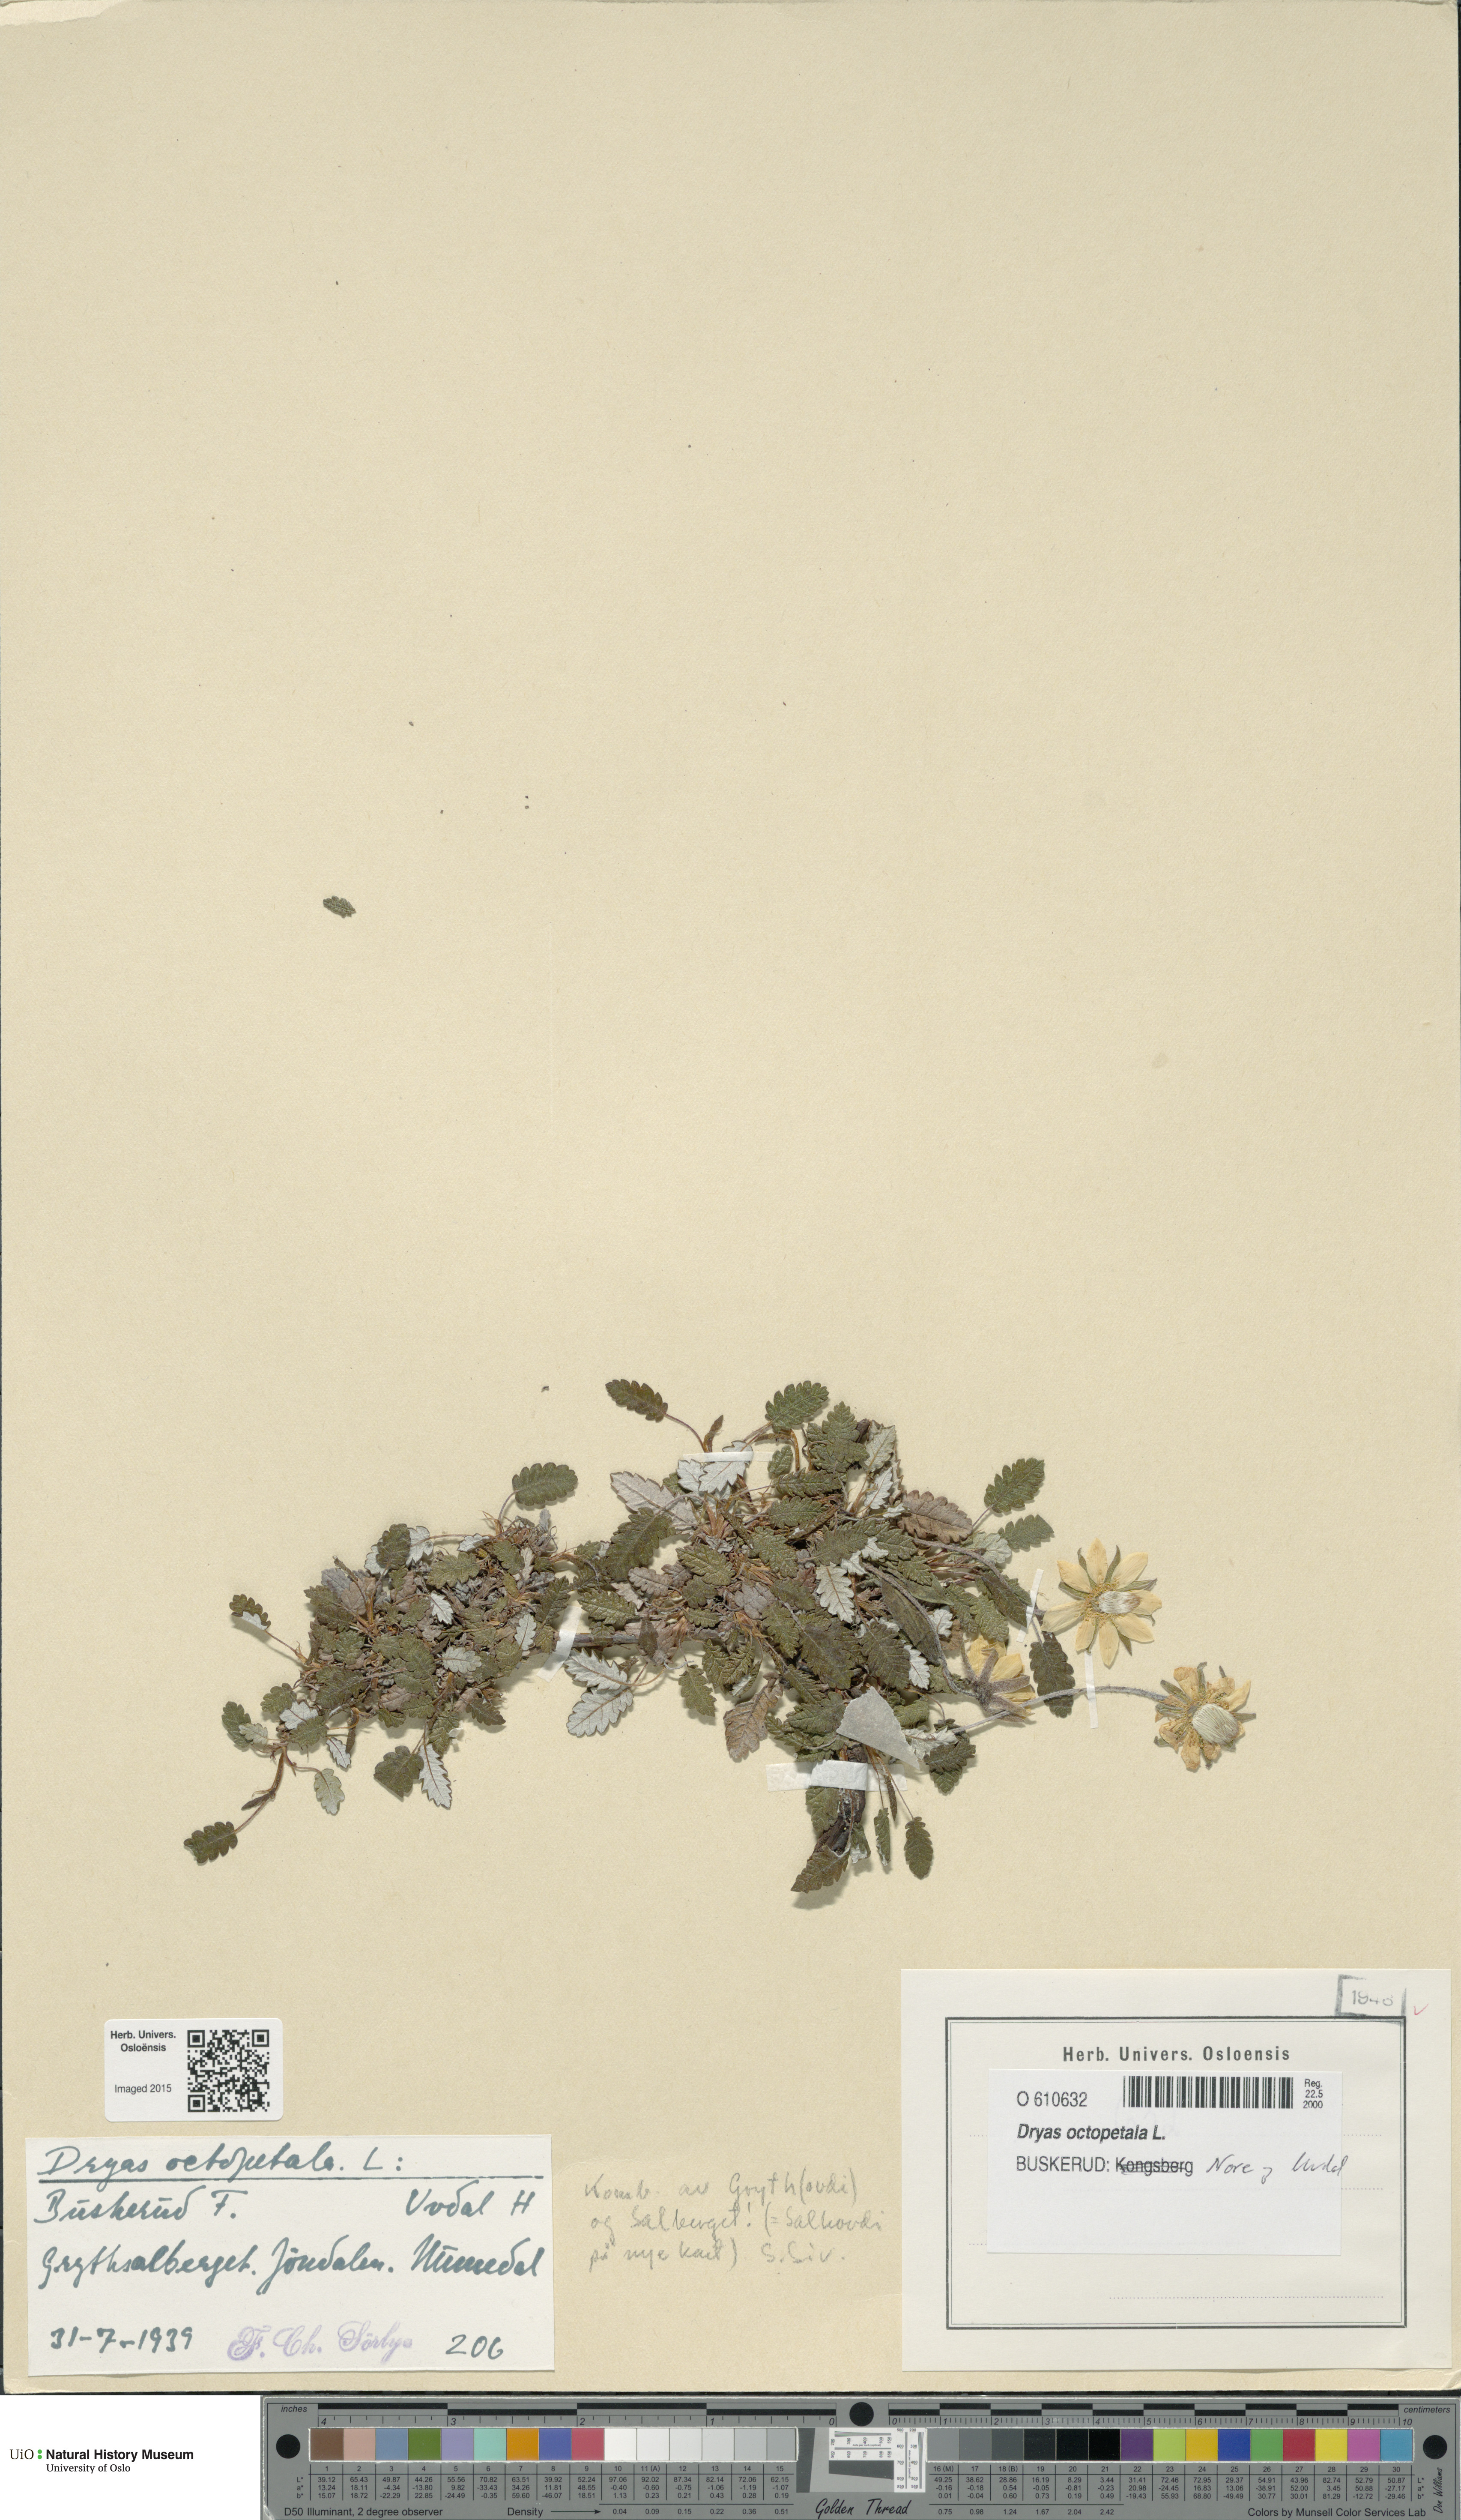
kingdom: Plantae
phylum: Tracheophyta
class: Magnoliopsida
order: Rosales
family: Rosaceae
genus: Dryas
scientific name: Dryas octopetala
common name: Eight-petal mountain-avens
